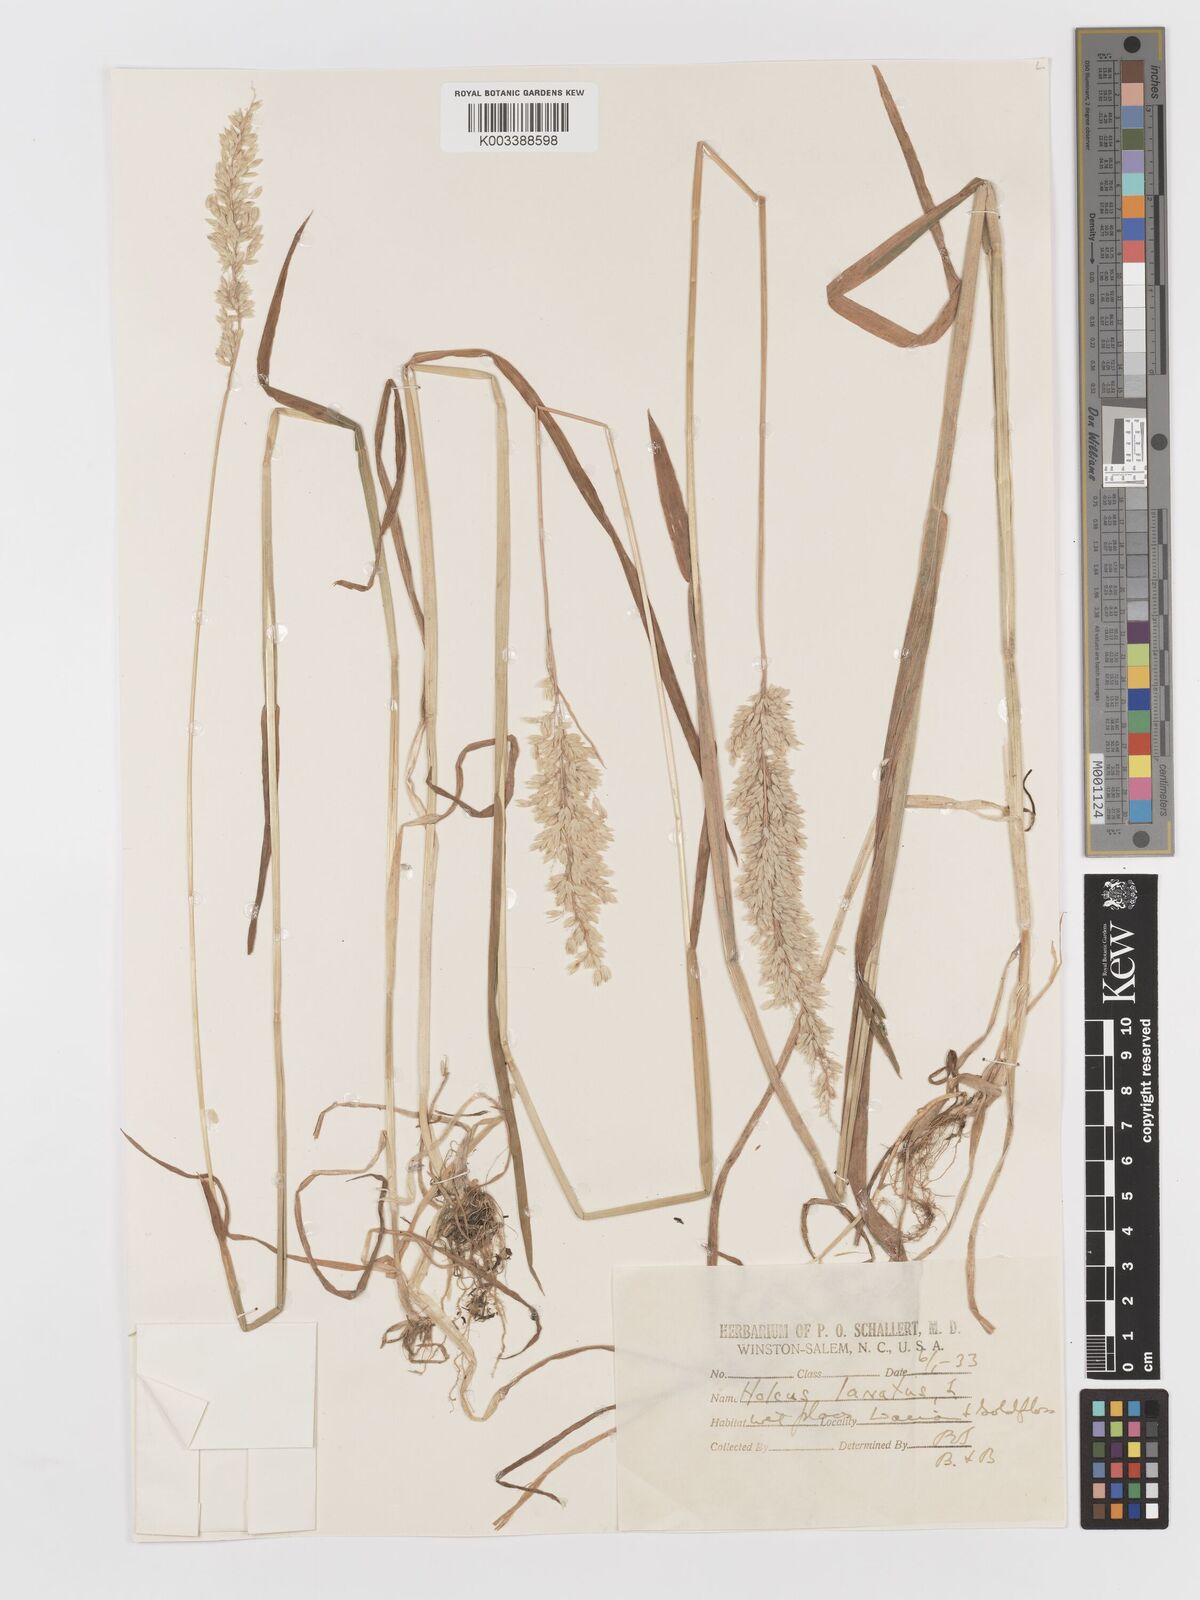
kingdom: Plantae
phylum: Tracheophyta
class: Liliopsida
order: Poales
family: Poaceae
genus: Holcus
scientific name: Holcus lanatus
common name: Yorkshire-fog
